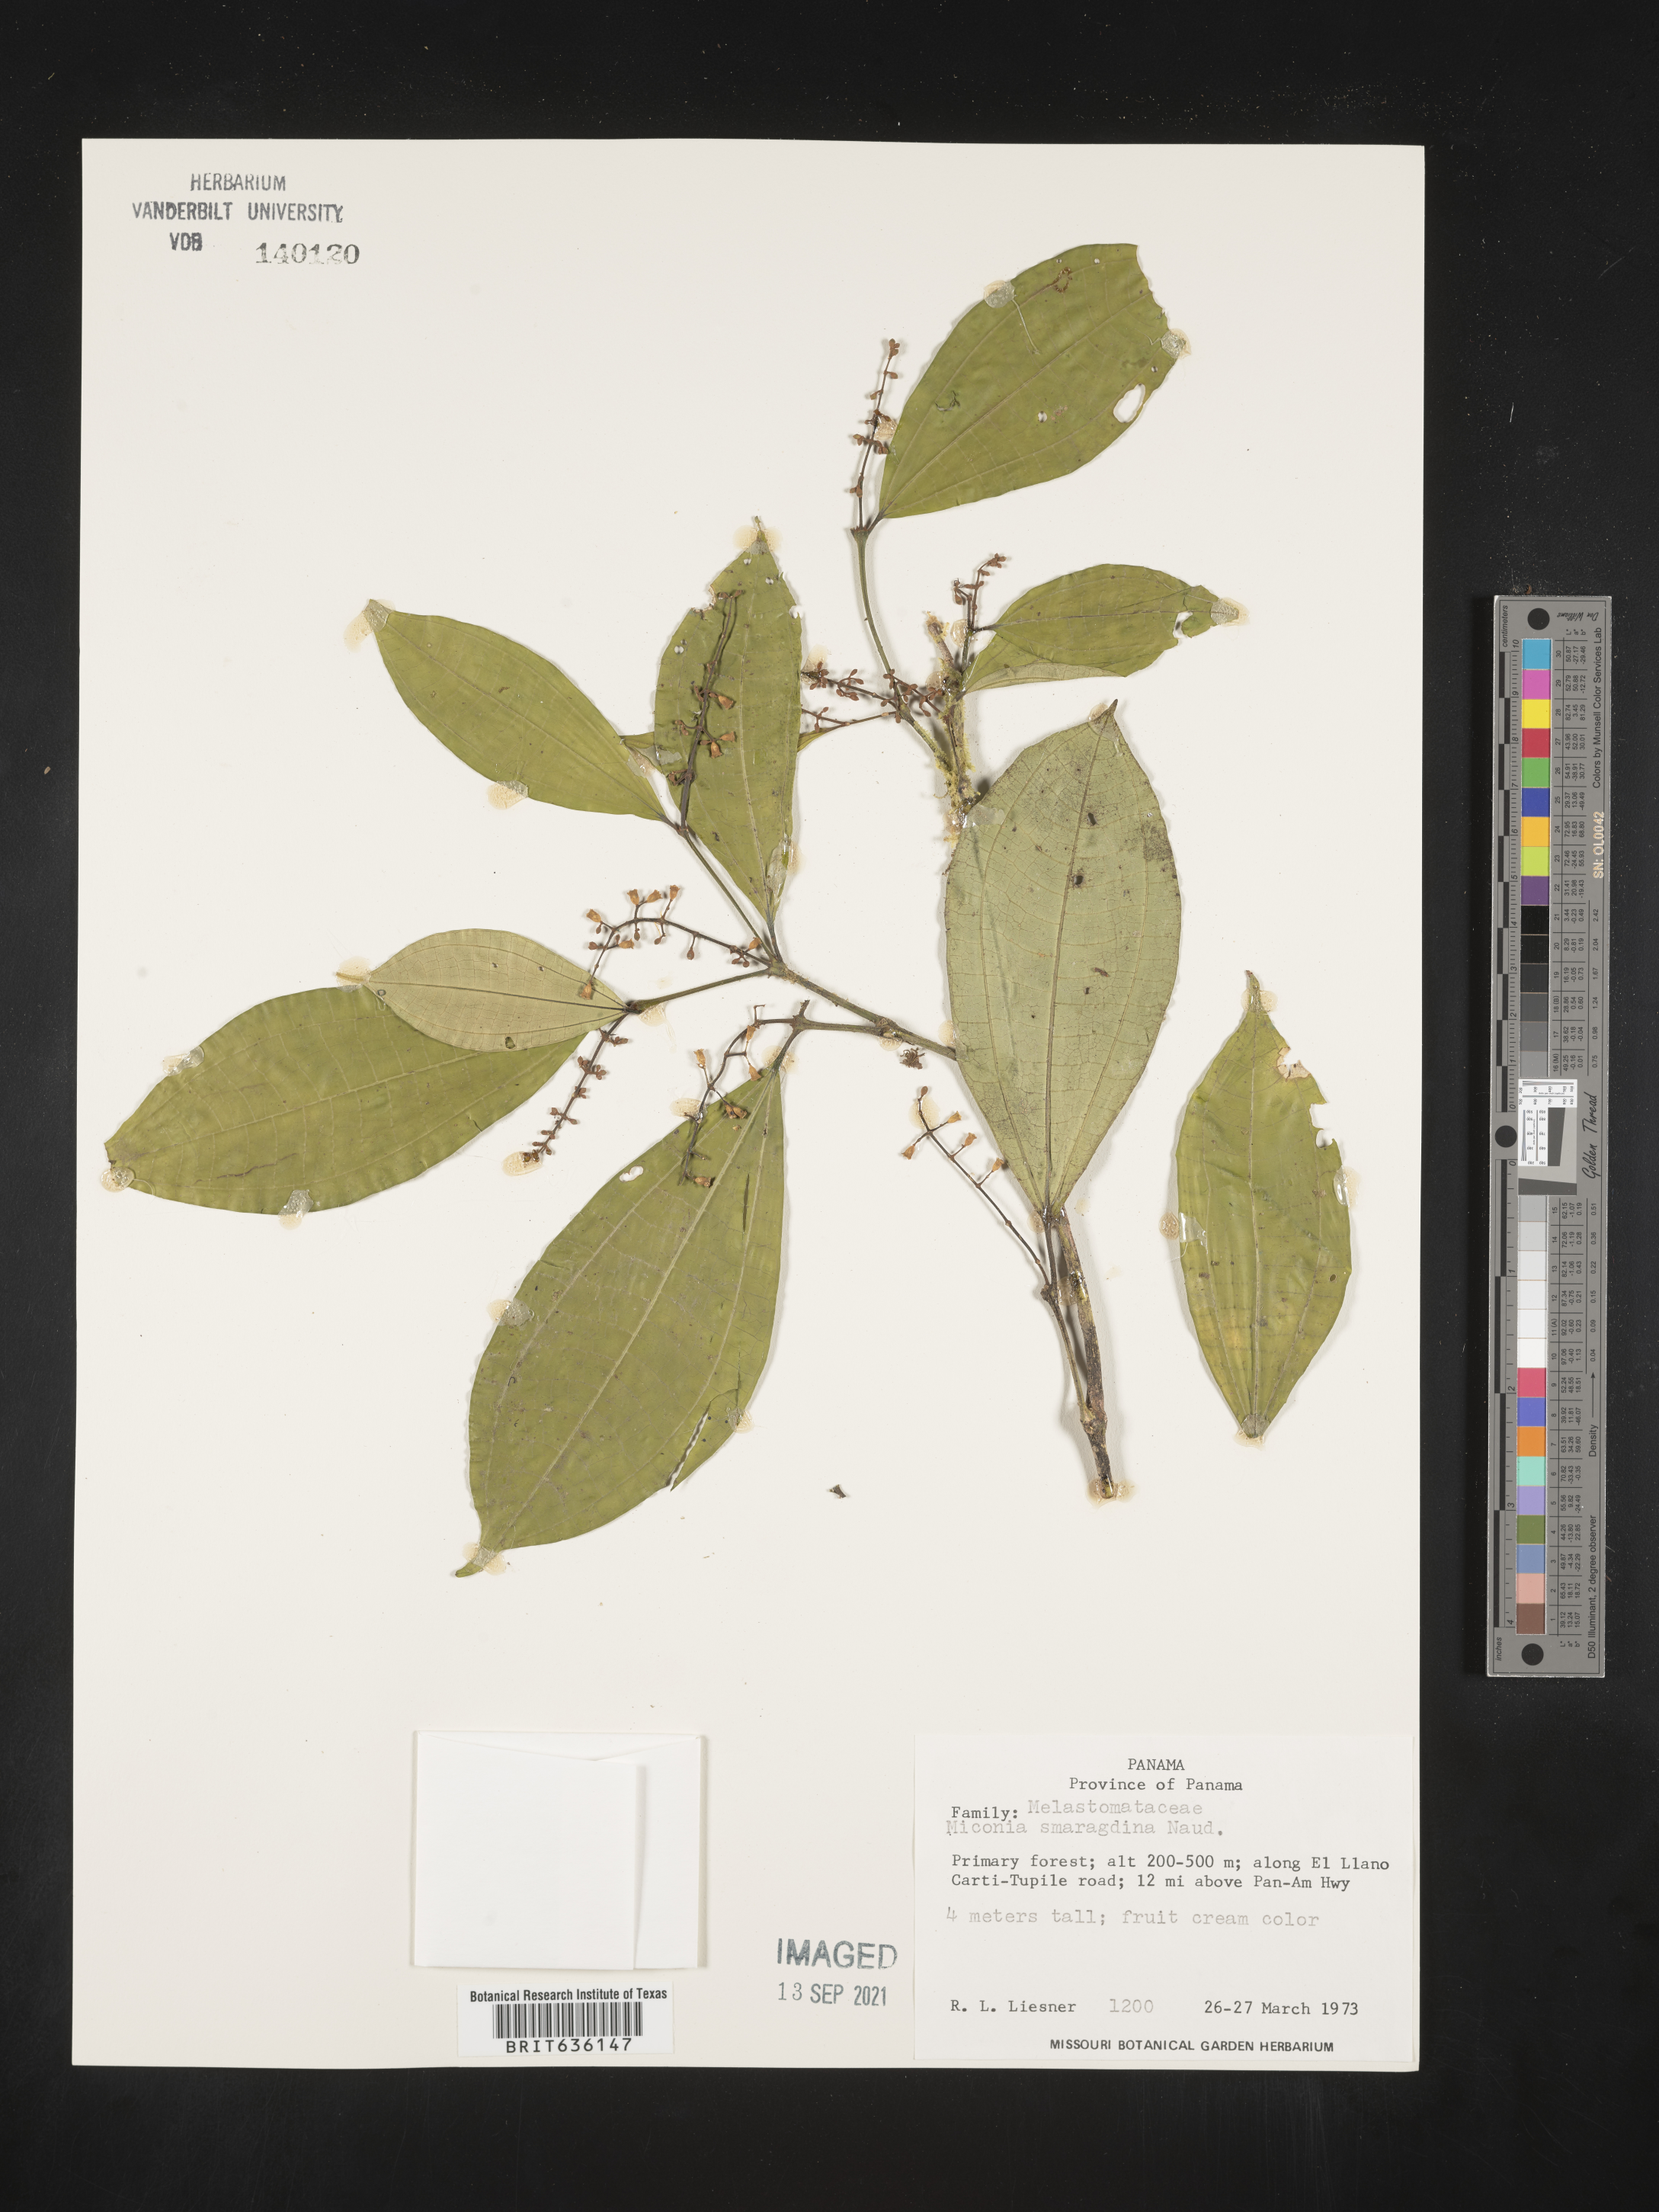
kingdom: Plantae
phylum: Tracheophyta
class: Magnoliopsida
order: Myrtales
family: Melastomataceae
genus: Miconia
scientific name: Miconia
